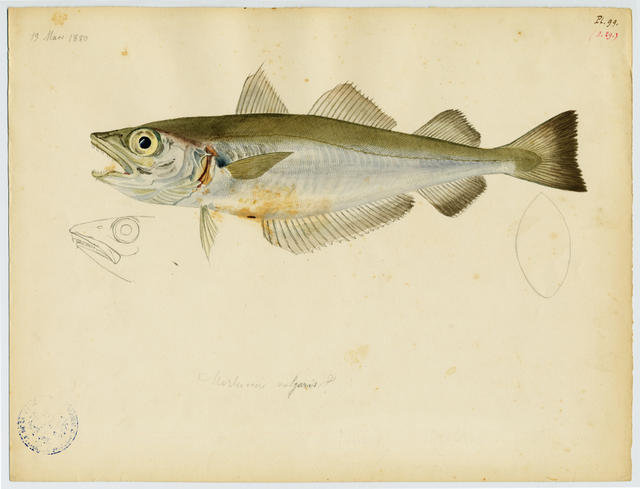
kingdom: Animalia
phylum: Chordata
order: Gadiformes
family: Gadidae
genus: Merlangius
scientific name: Merlangius merlangus
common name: Whiting
